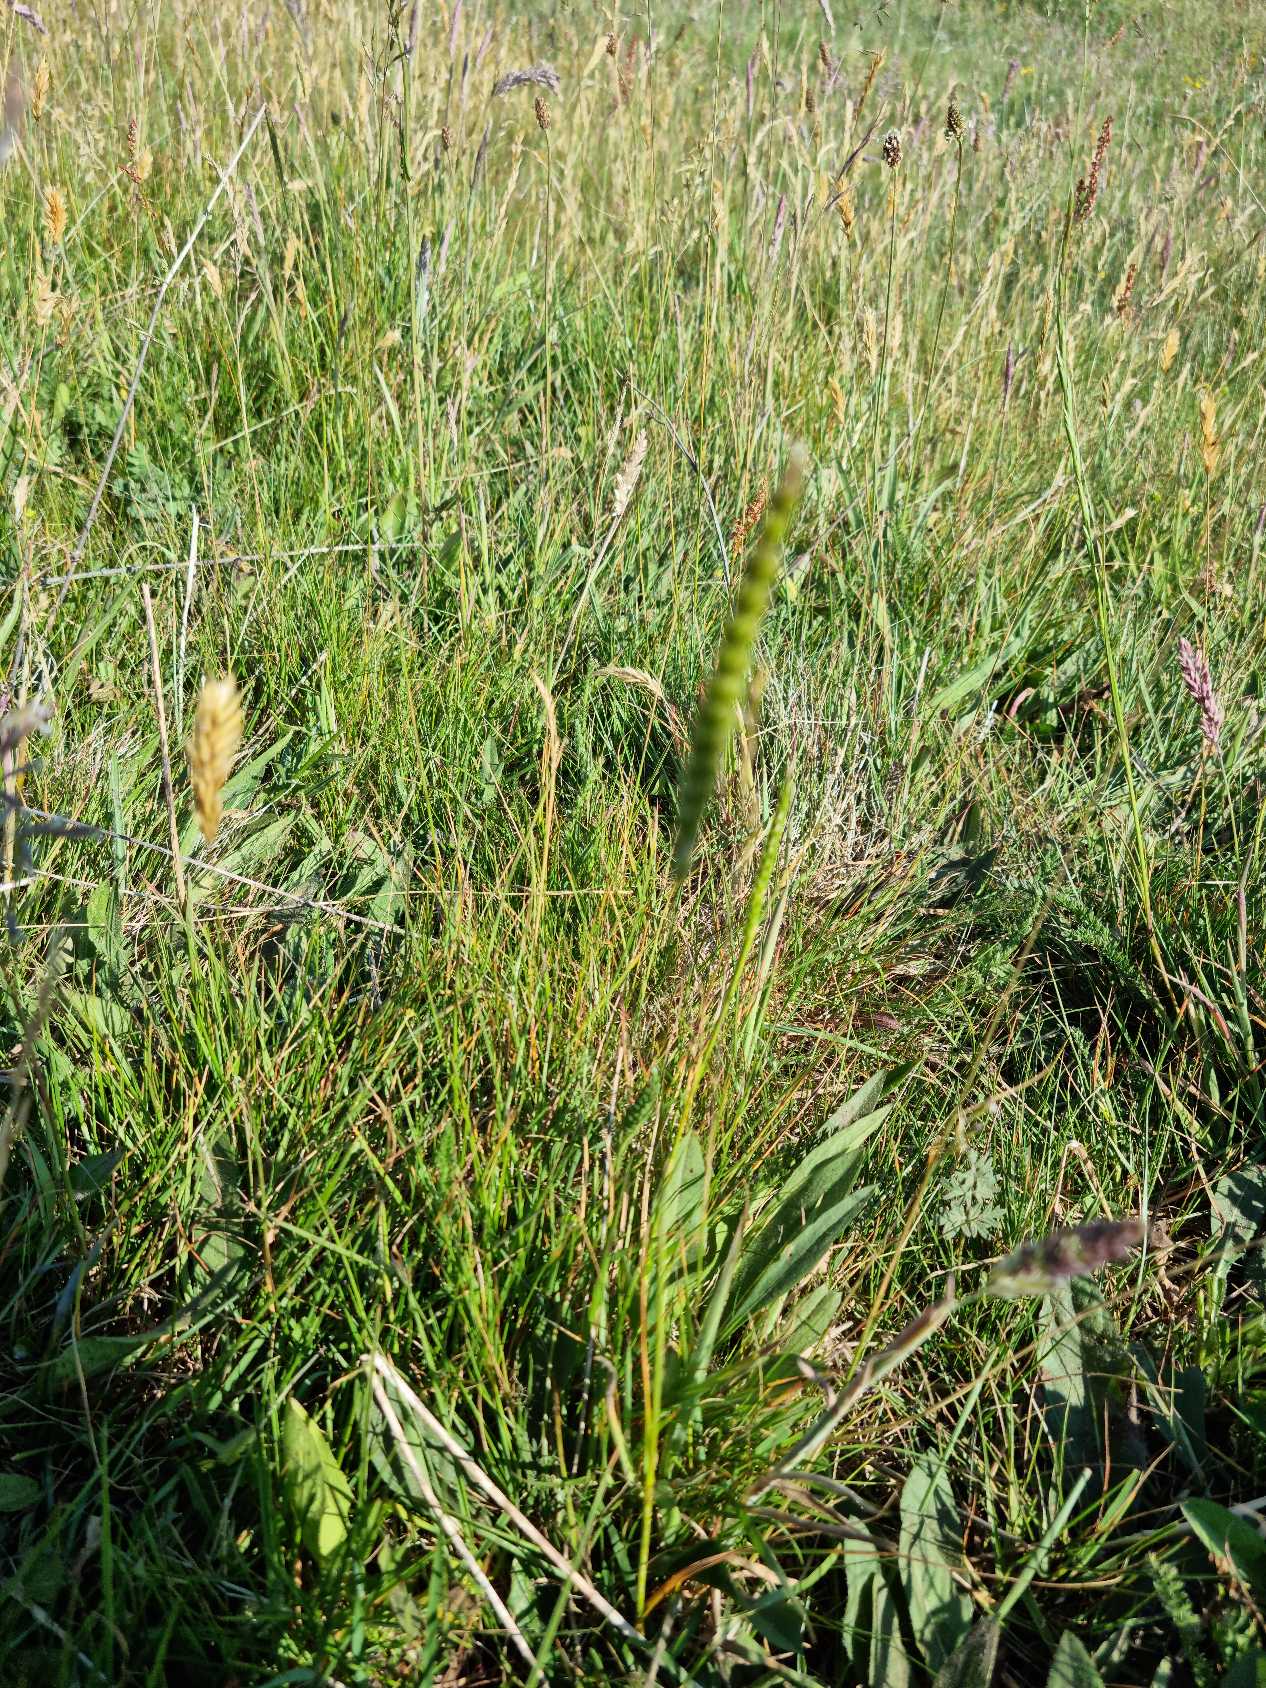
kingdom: Plantae
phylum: Tracheophyta
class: Liliopsida
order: Poales
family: Poaceae
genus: Cynosurus
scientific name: Cynosurus cristatus
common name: Kamgræs
